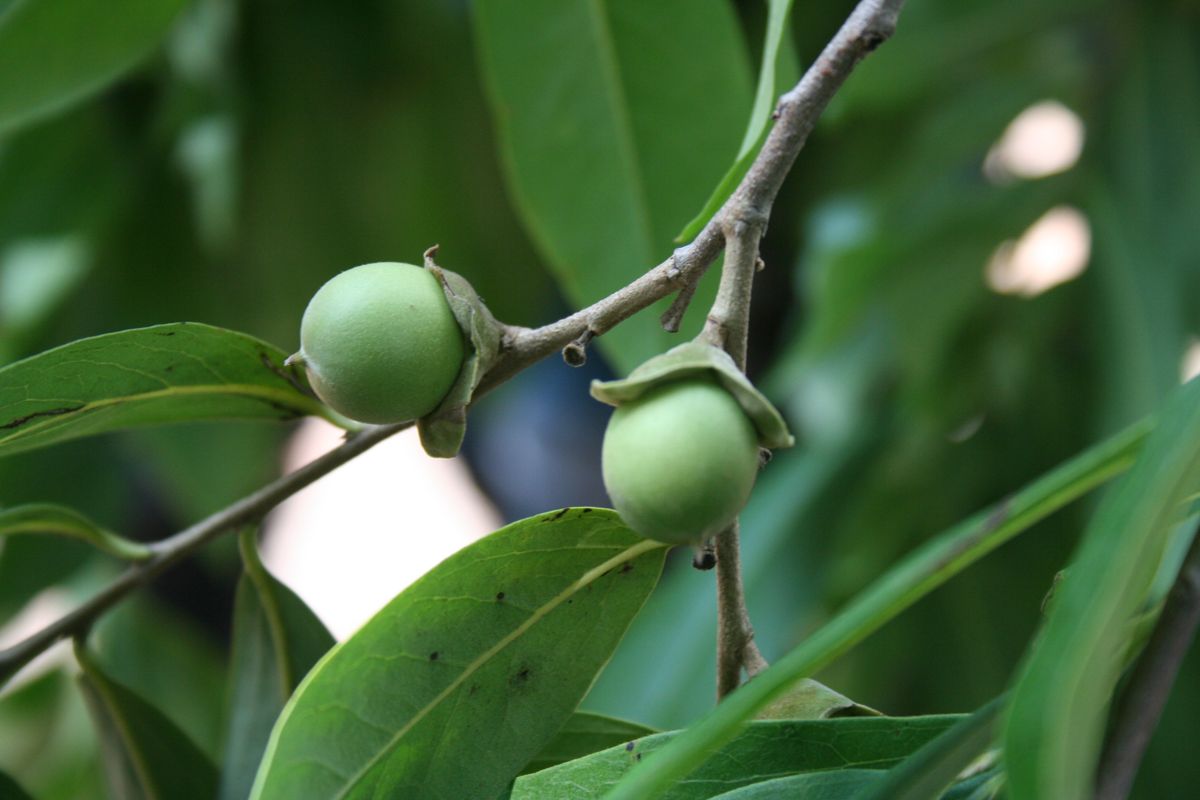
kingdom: Plantae
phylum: Tracheophyta
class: Magnoliopsida
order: Ericales
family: Ebenaceae
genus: Diospyros
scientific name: Diospyros salicifolia
